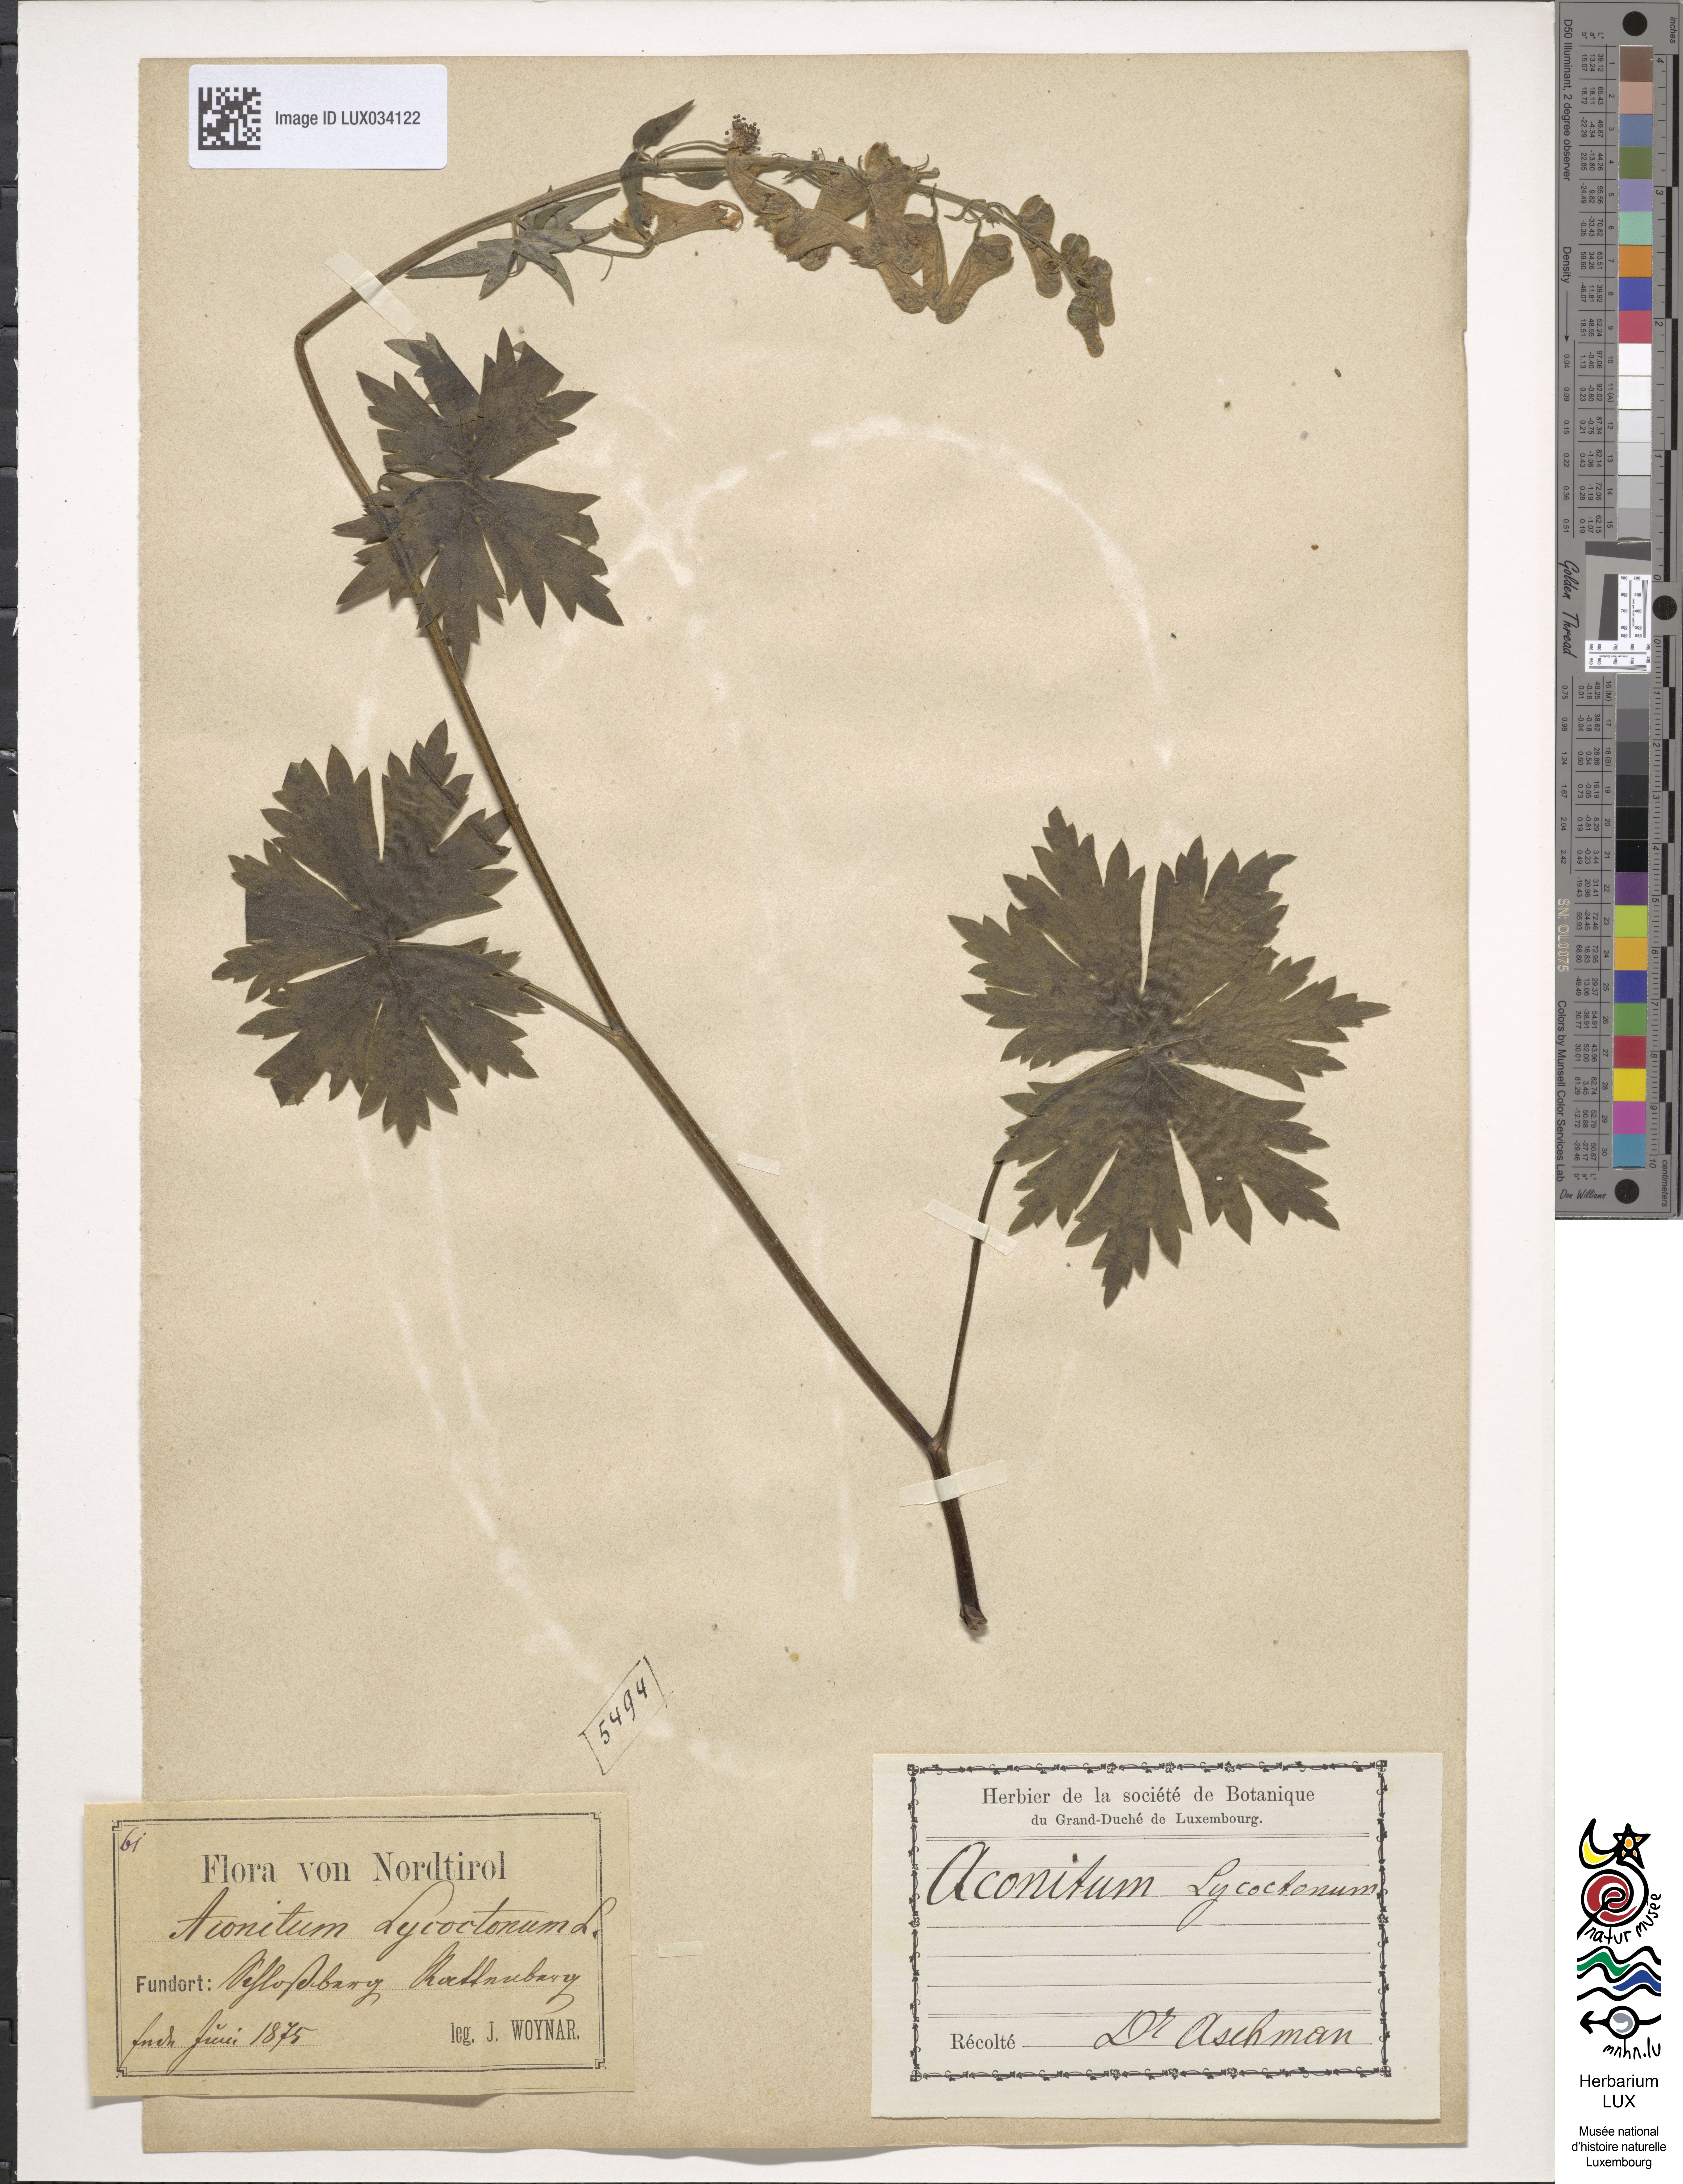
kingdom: Plantae
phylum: Tracheophyta
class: Magnoliopsida
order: Ranunculales
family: Ranunculaceae
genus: Aconitum
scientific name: Aconitum lycoctonum
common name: Wolf's-bane
